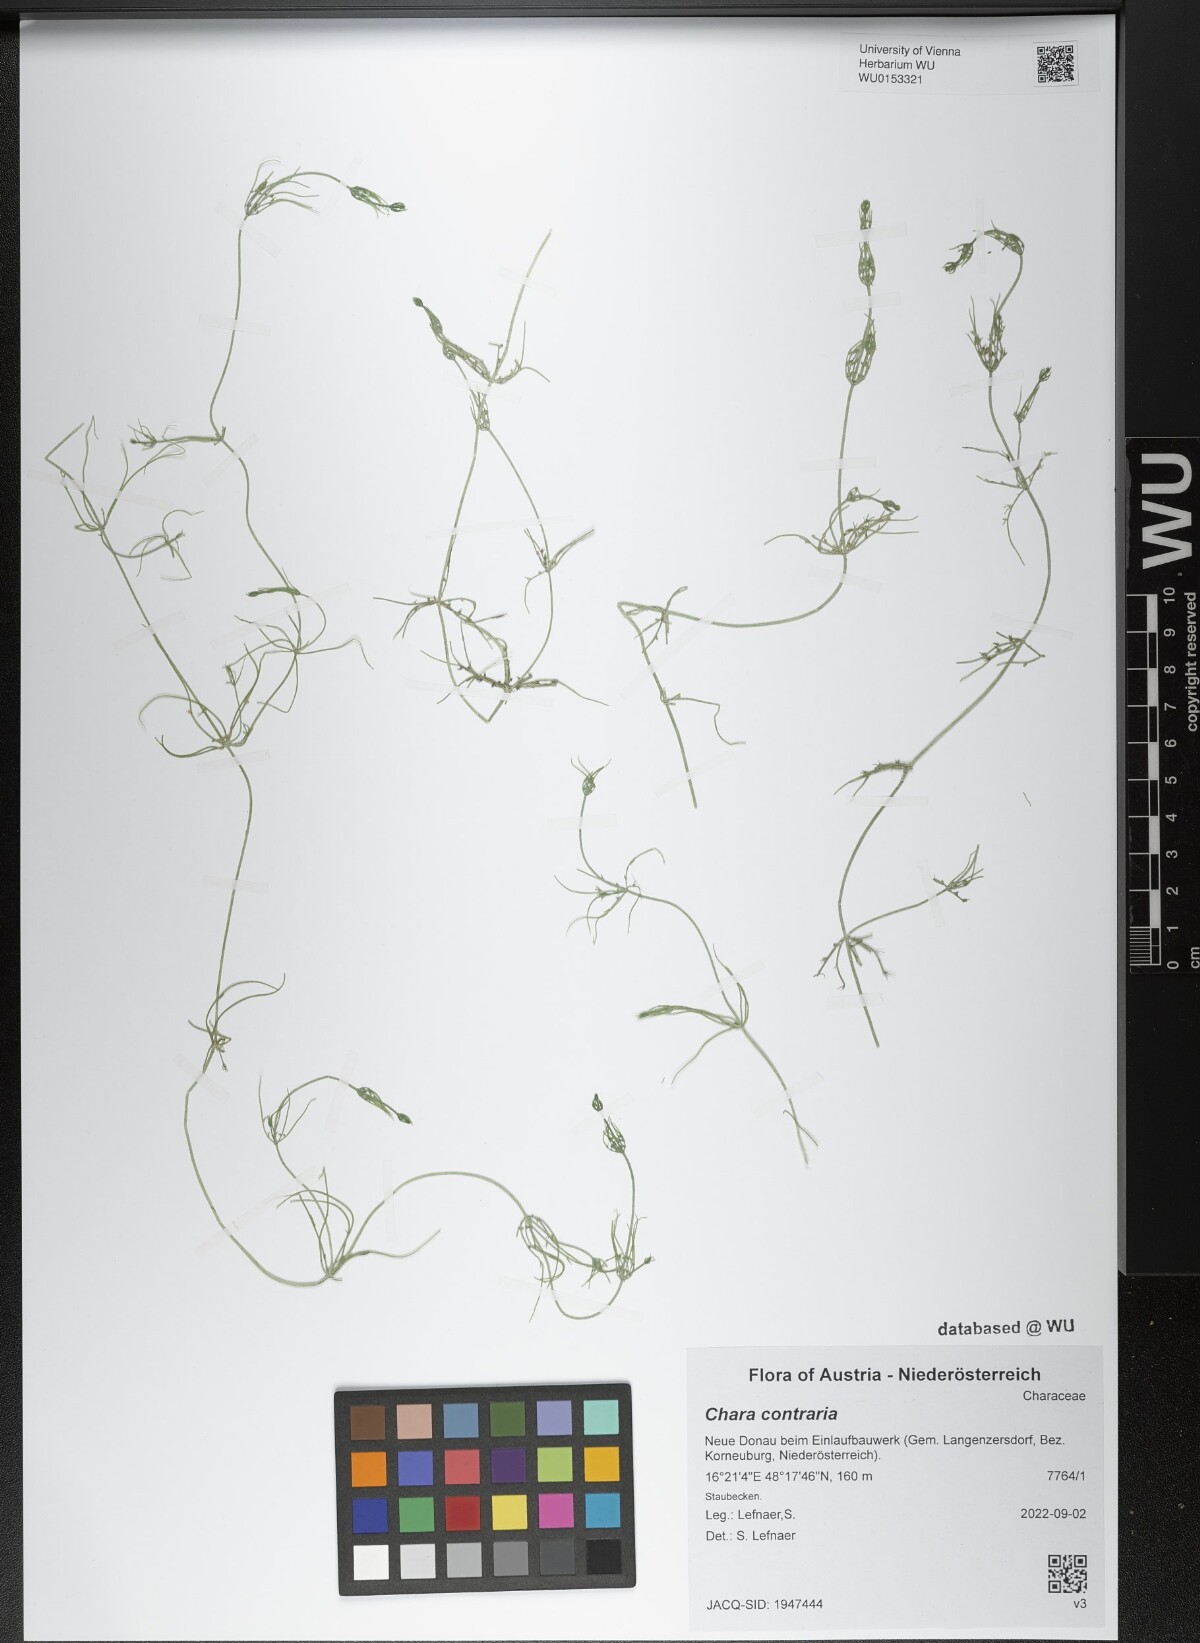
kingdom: Plantae
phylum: Charophyta
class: Charophyceae
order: Charales
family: Characeae
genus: Chara
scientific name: Chara contraria
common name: Opposite stonewort
